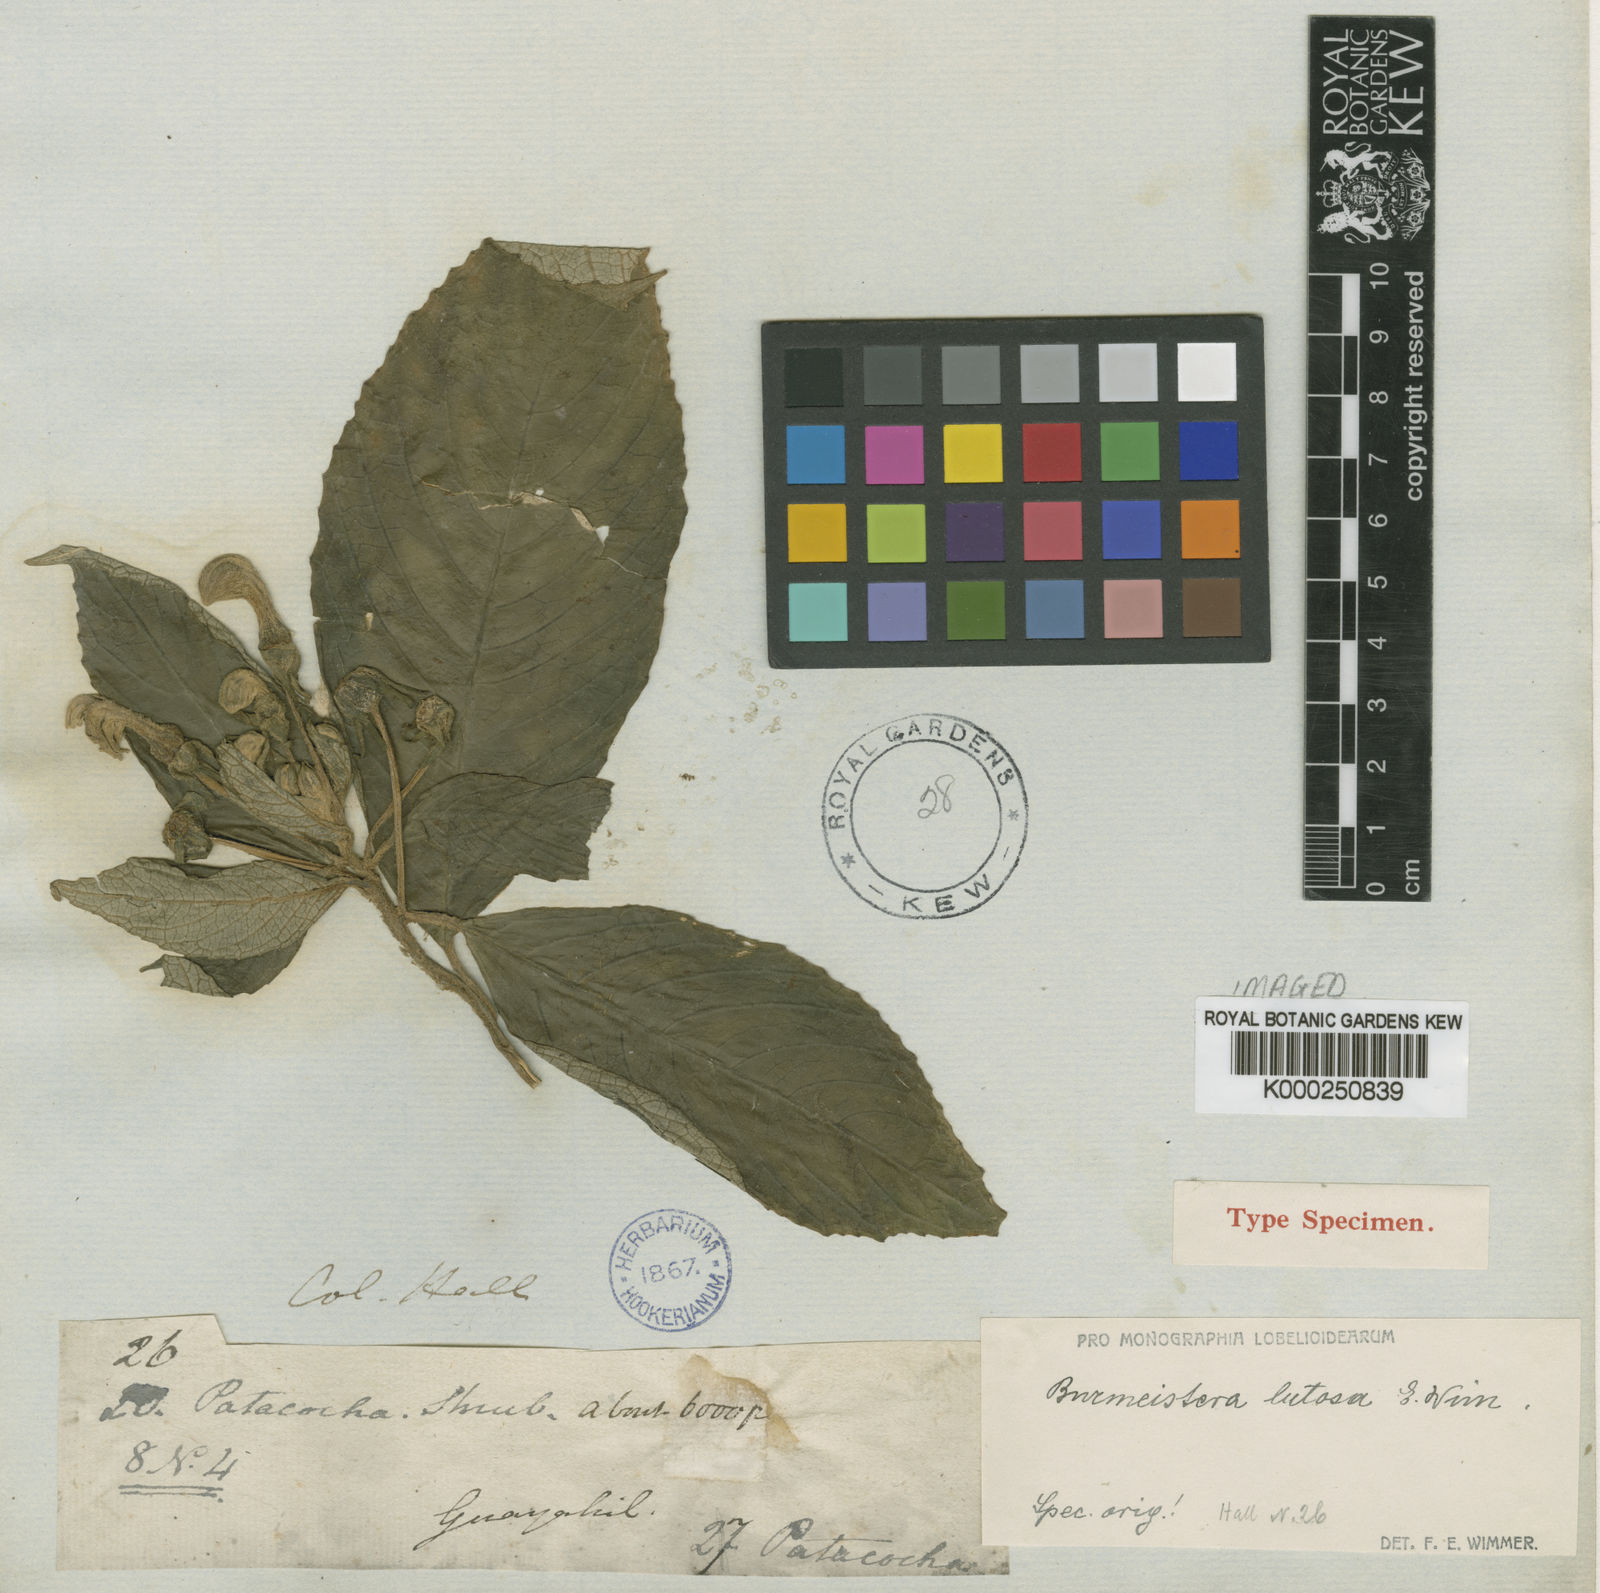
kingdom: Plantae
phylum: Tracheophyta
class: Magnoliopsida
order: Asterales
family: Campanulaceae
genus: Burmeistera
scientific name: Burmeistera lutosa
